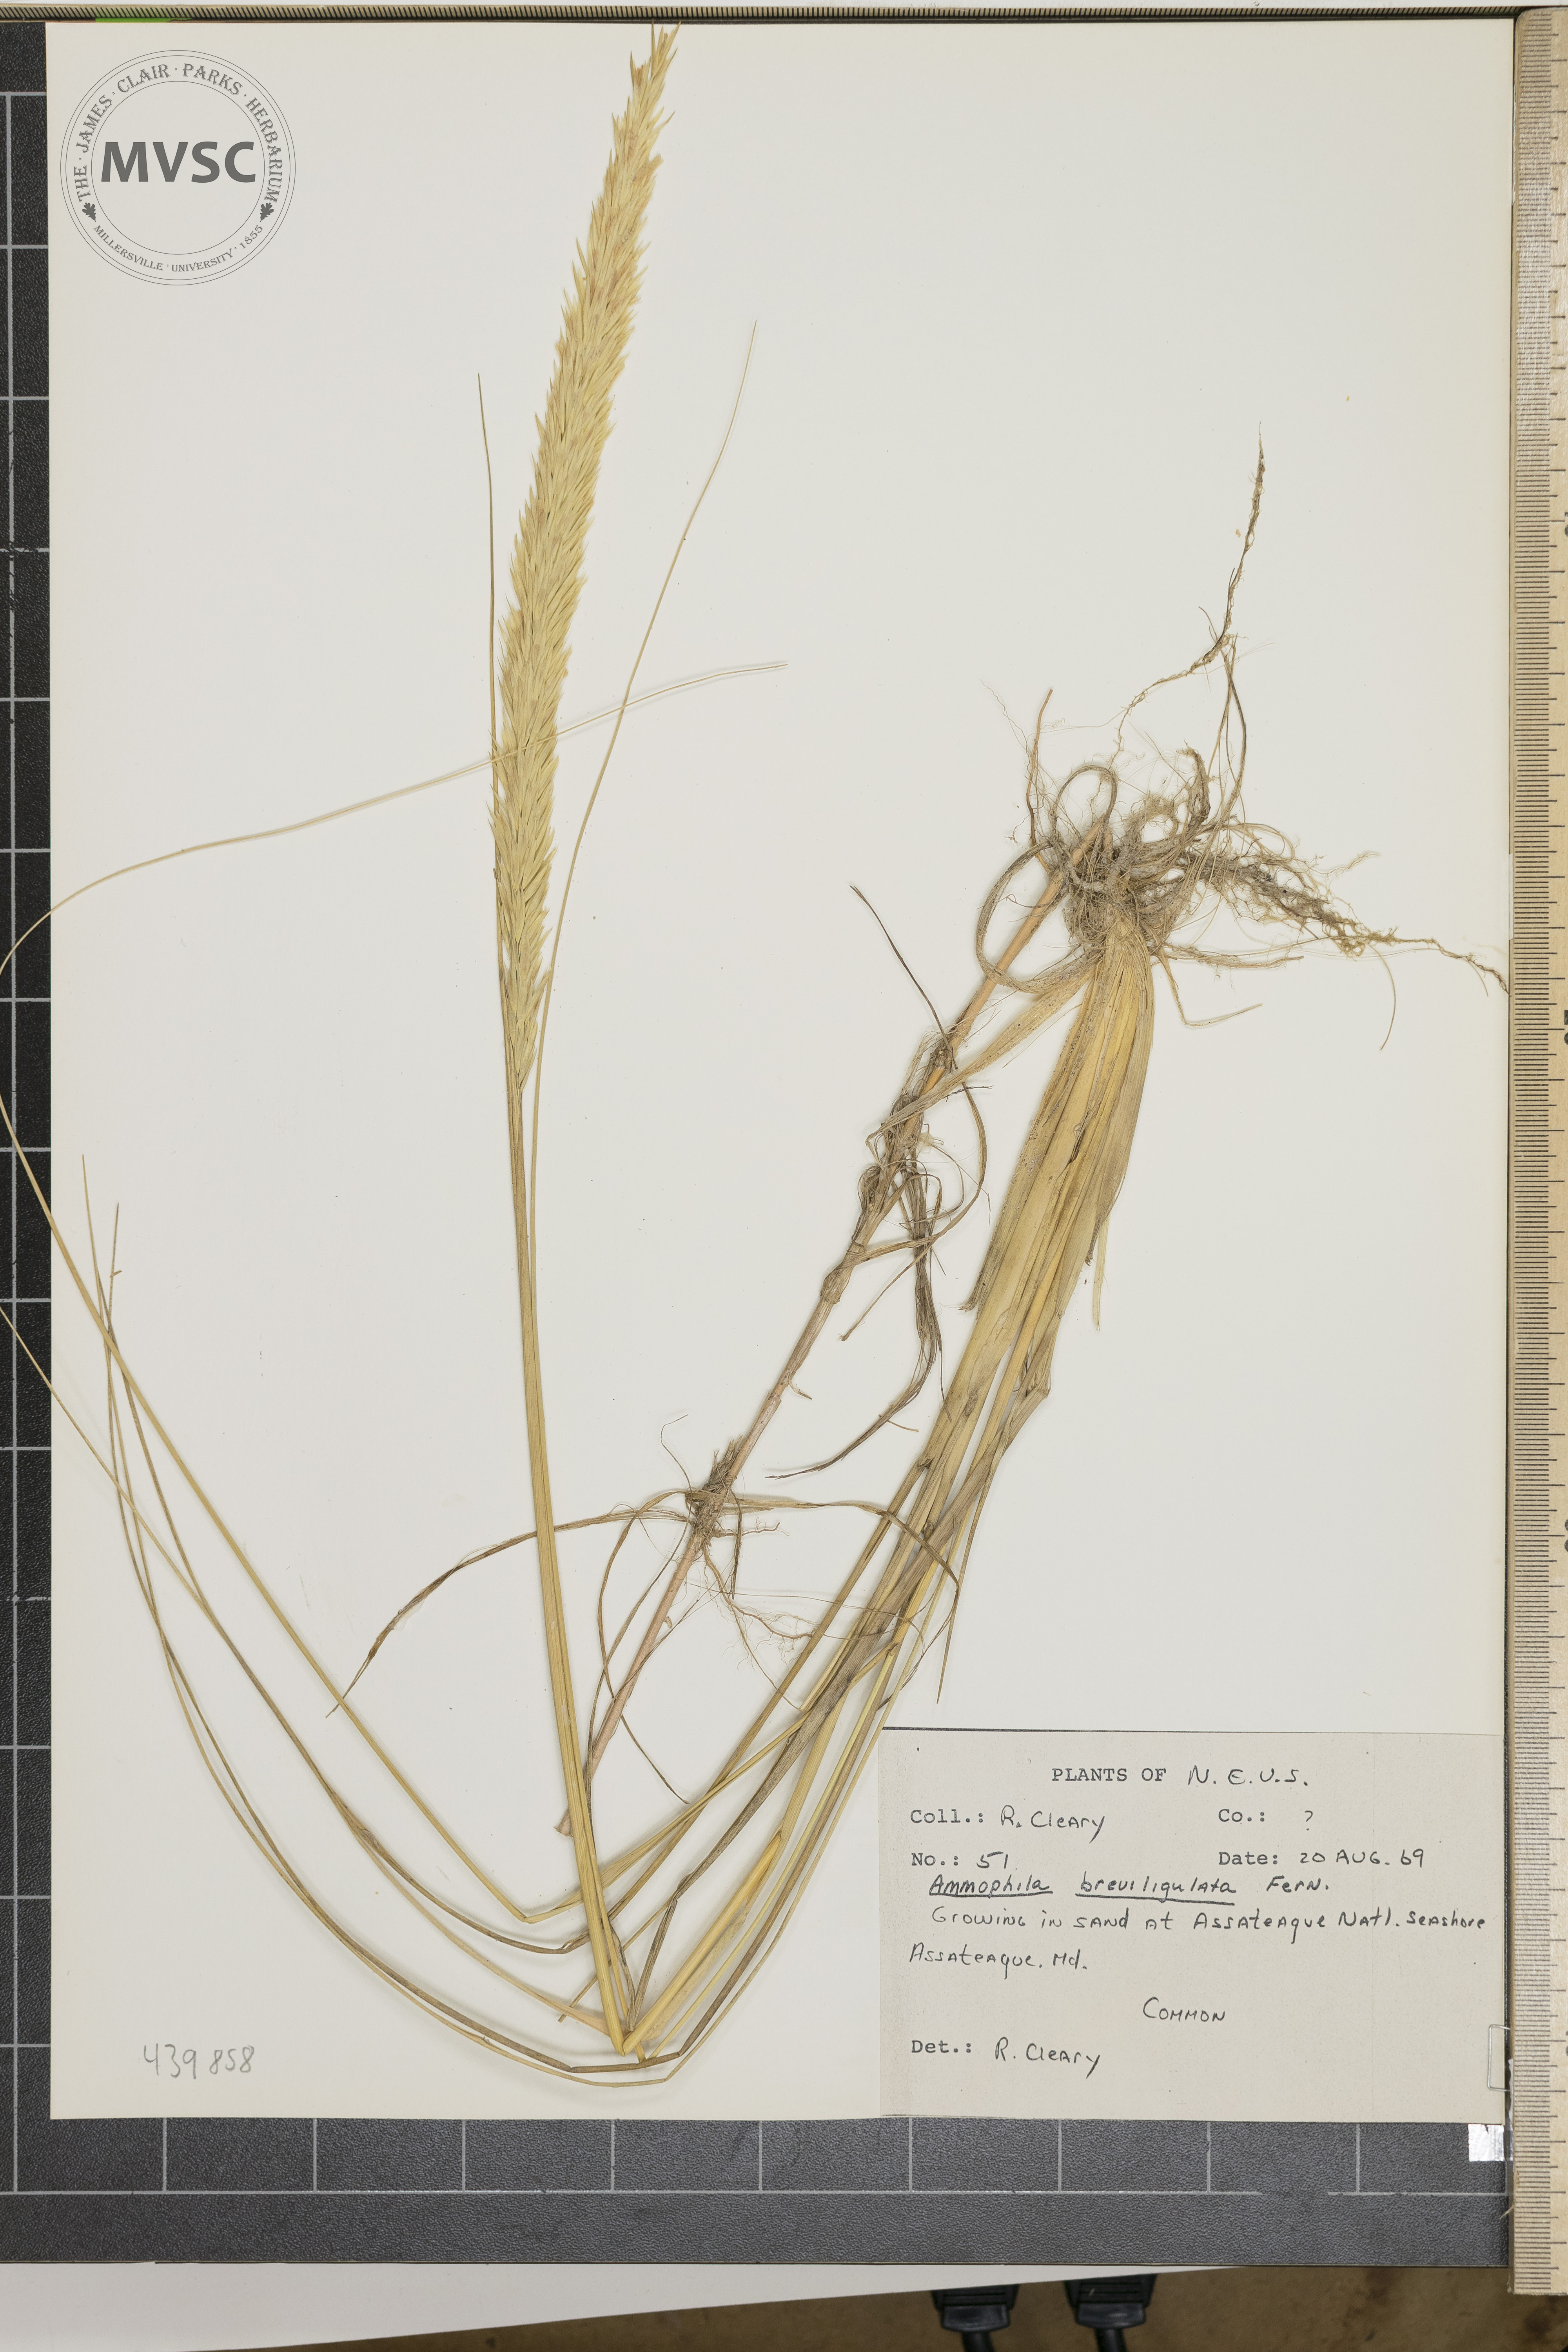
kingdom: Plantae
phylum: Tracheophyta
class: Liliopsida
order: Poales
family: Poaceae
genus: Calamagrostis
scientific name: Calamagrostis breviligulata
